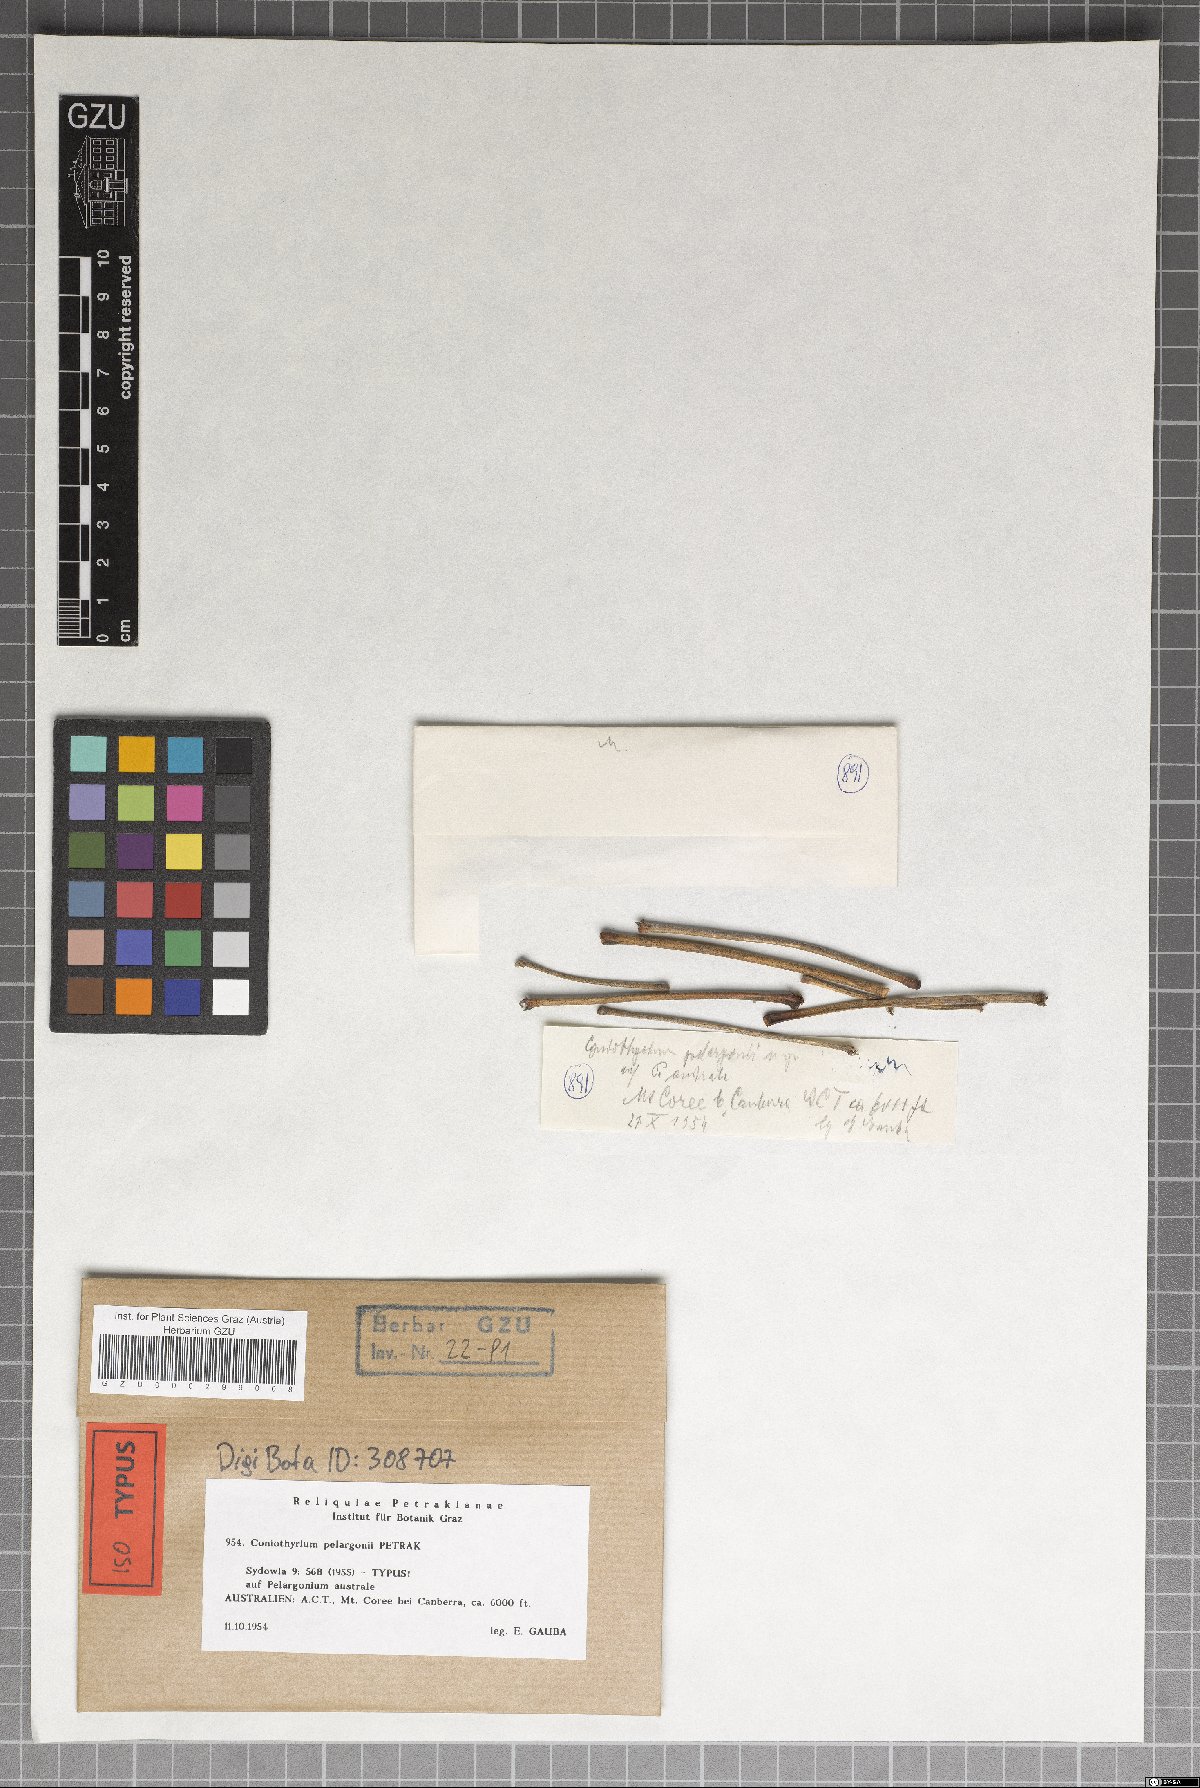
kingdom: Fungi
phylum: Ascomycota
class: Dothideomycetes
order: Pleosporales
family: Coniothyriaceae
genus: Coniothyrium
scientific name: Coniothyrium pelargonii
